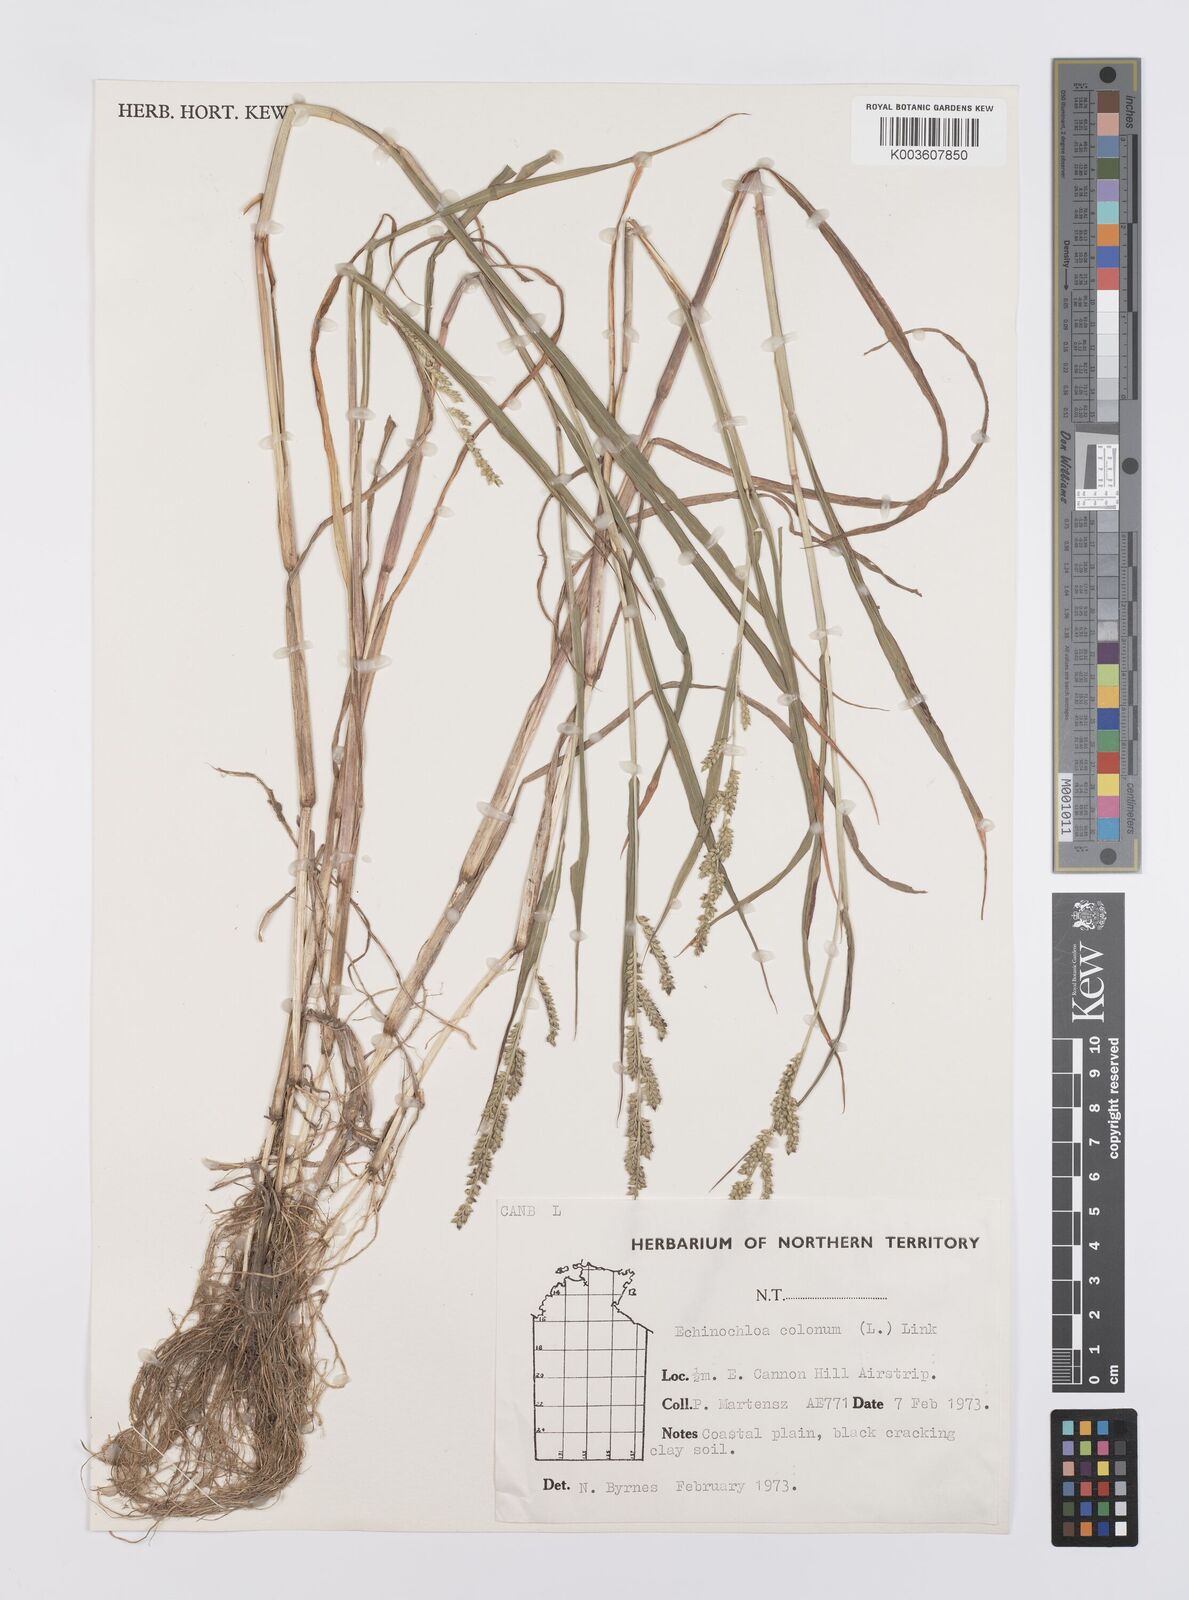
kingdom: Plantae
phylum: Tracheophyta
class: Liliopsida
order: Poales
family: Poaceae
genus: Echinochloa
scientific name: Echinochloa colonum
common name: Jungle rice
